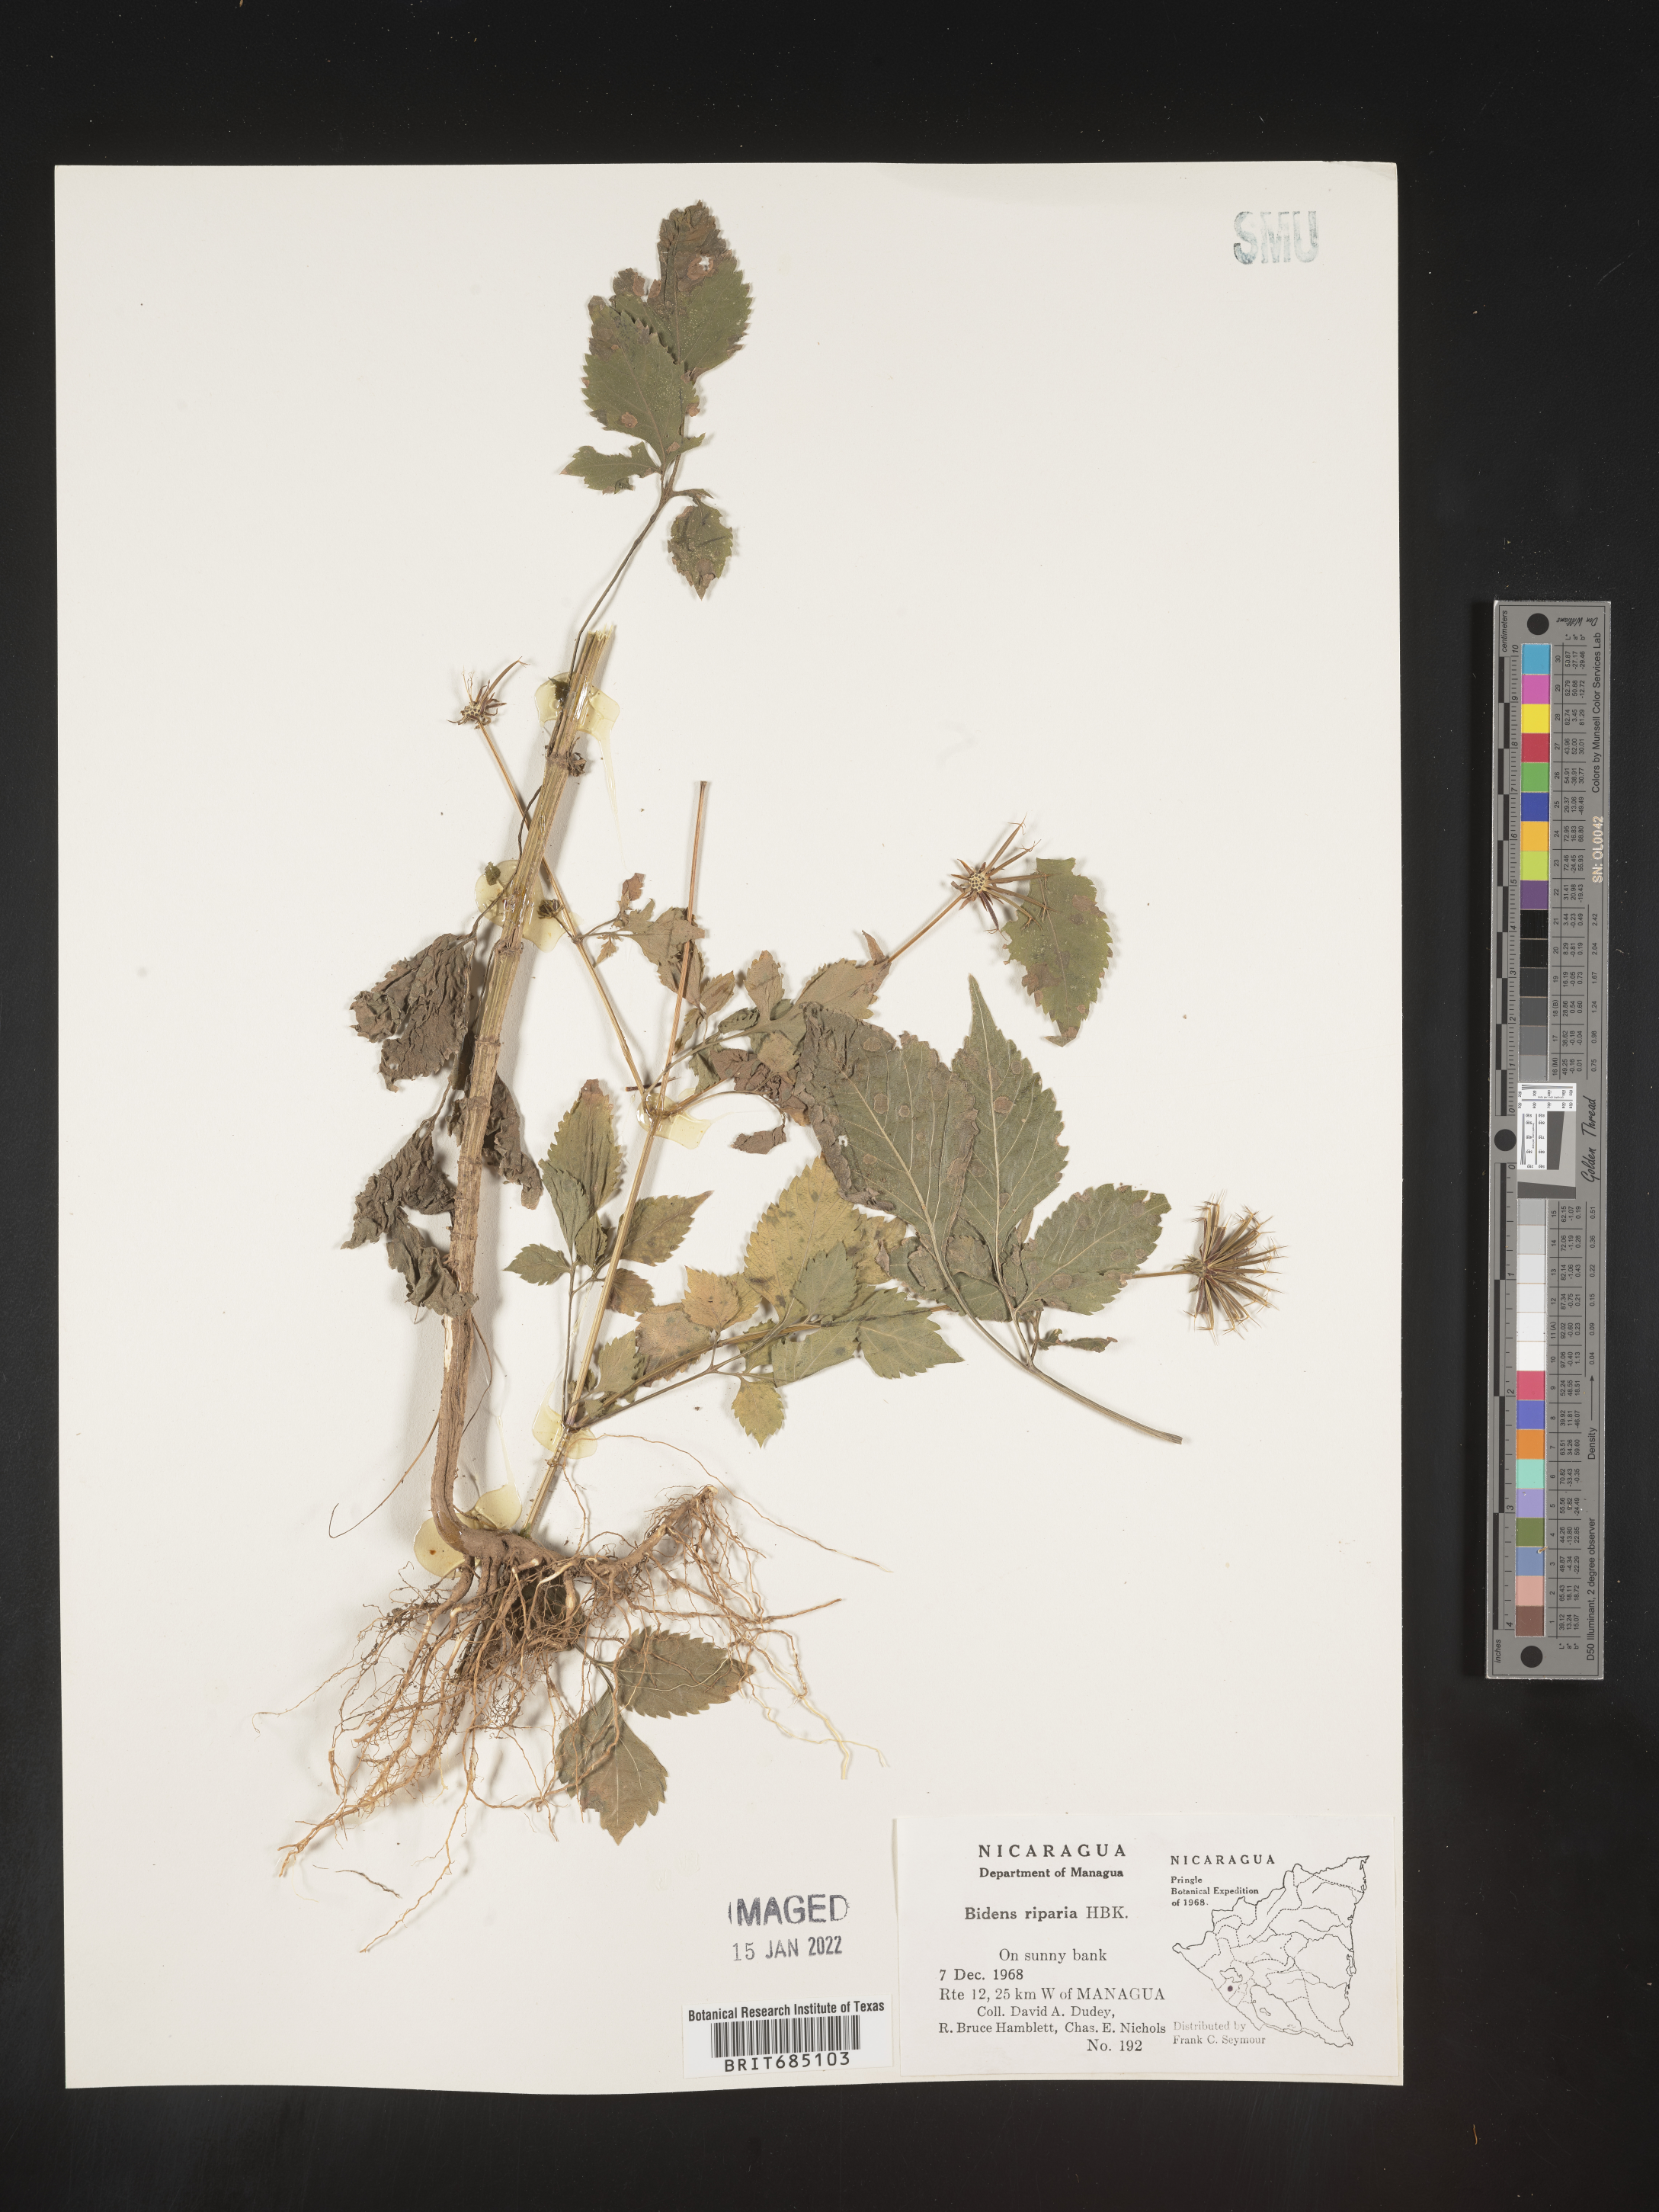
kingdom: Plantae
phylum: Tracheophyta
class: Magnoliopsida
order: Asterales
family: Asteraceae
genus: Bidens
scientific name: Bidens
